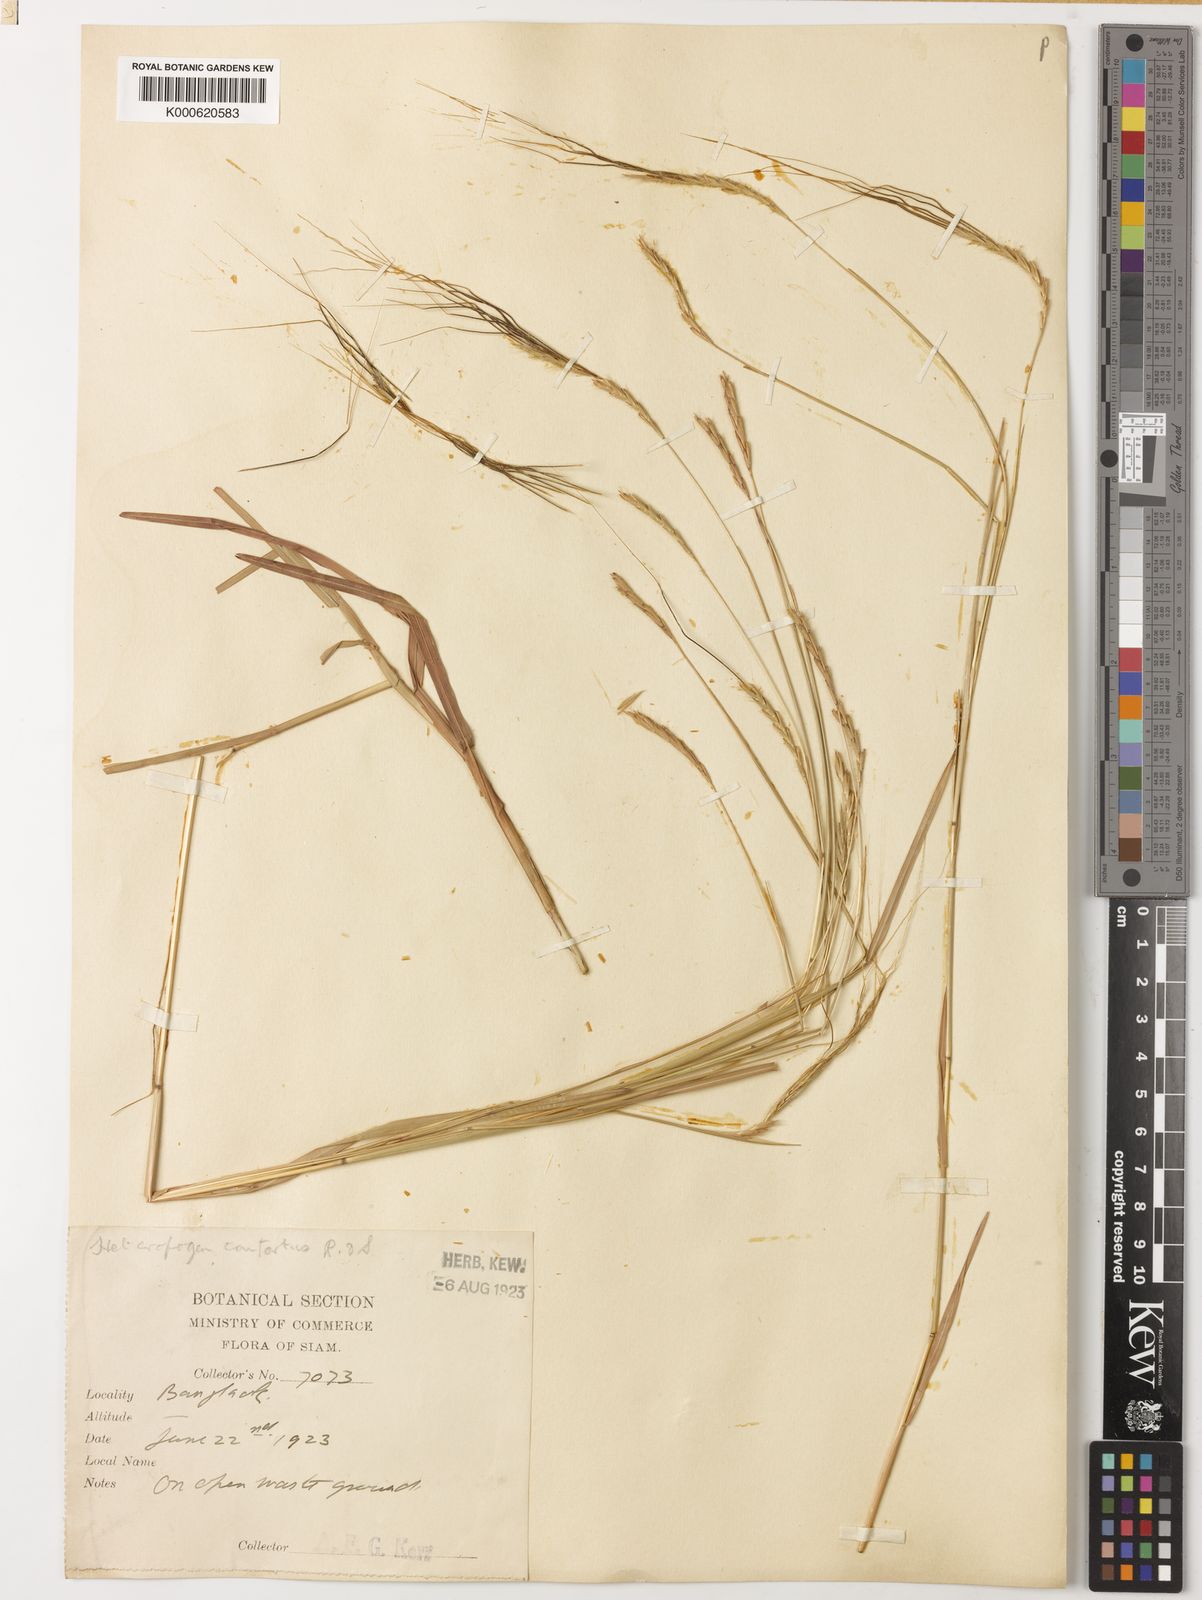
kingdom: Plantae
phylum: Tracheophyta
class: Liliopsida
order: Poales
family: Poaceae
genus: Heteropogon
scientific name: Heteropogon contortus
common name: Tanglehead
